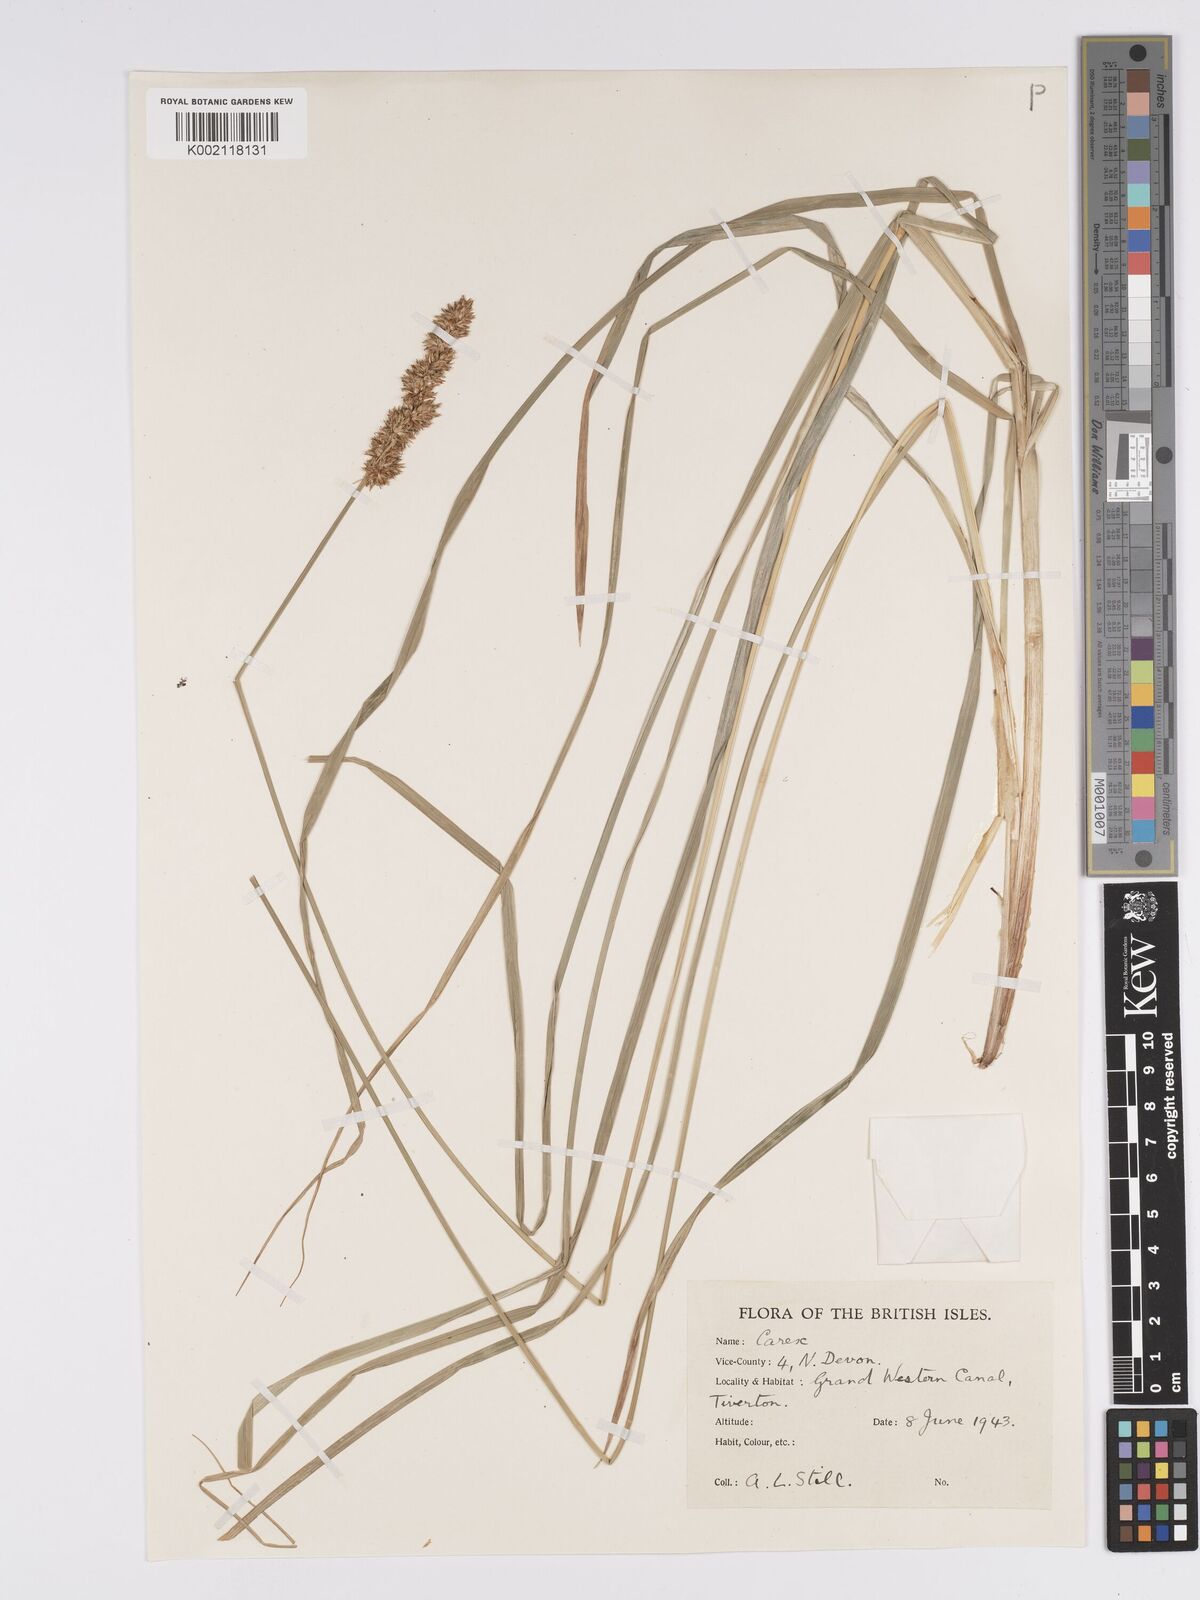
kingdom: Plantae
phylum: Tracheophyta
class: Liliopsida
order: Poales
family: Cyperaceae
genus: Carex
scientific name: Carex paniculata
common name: Greater tussock-sedge
